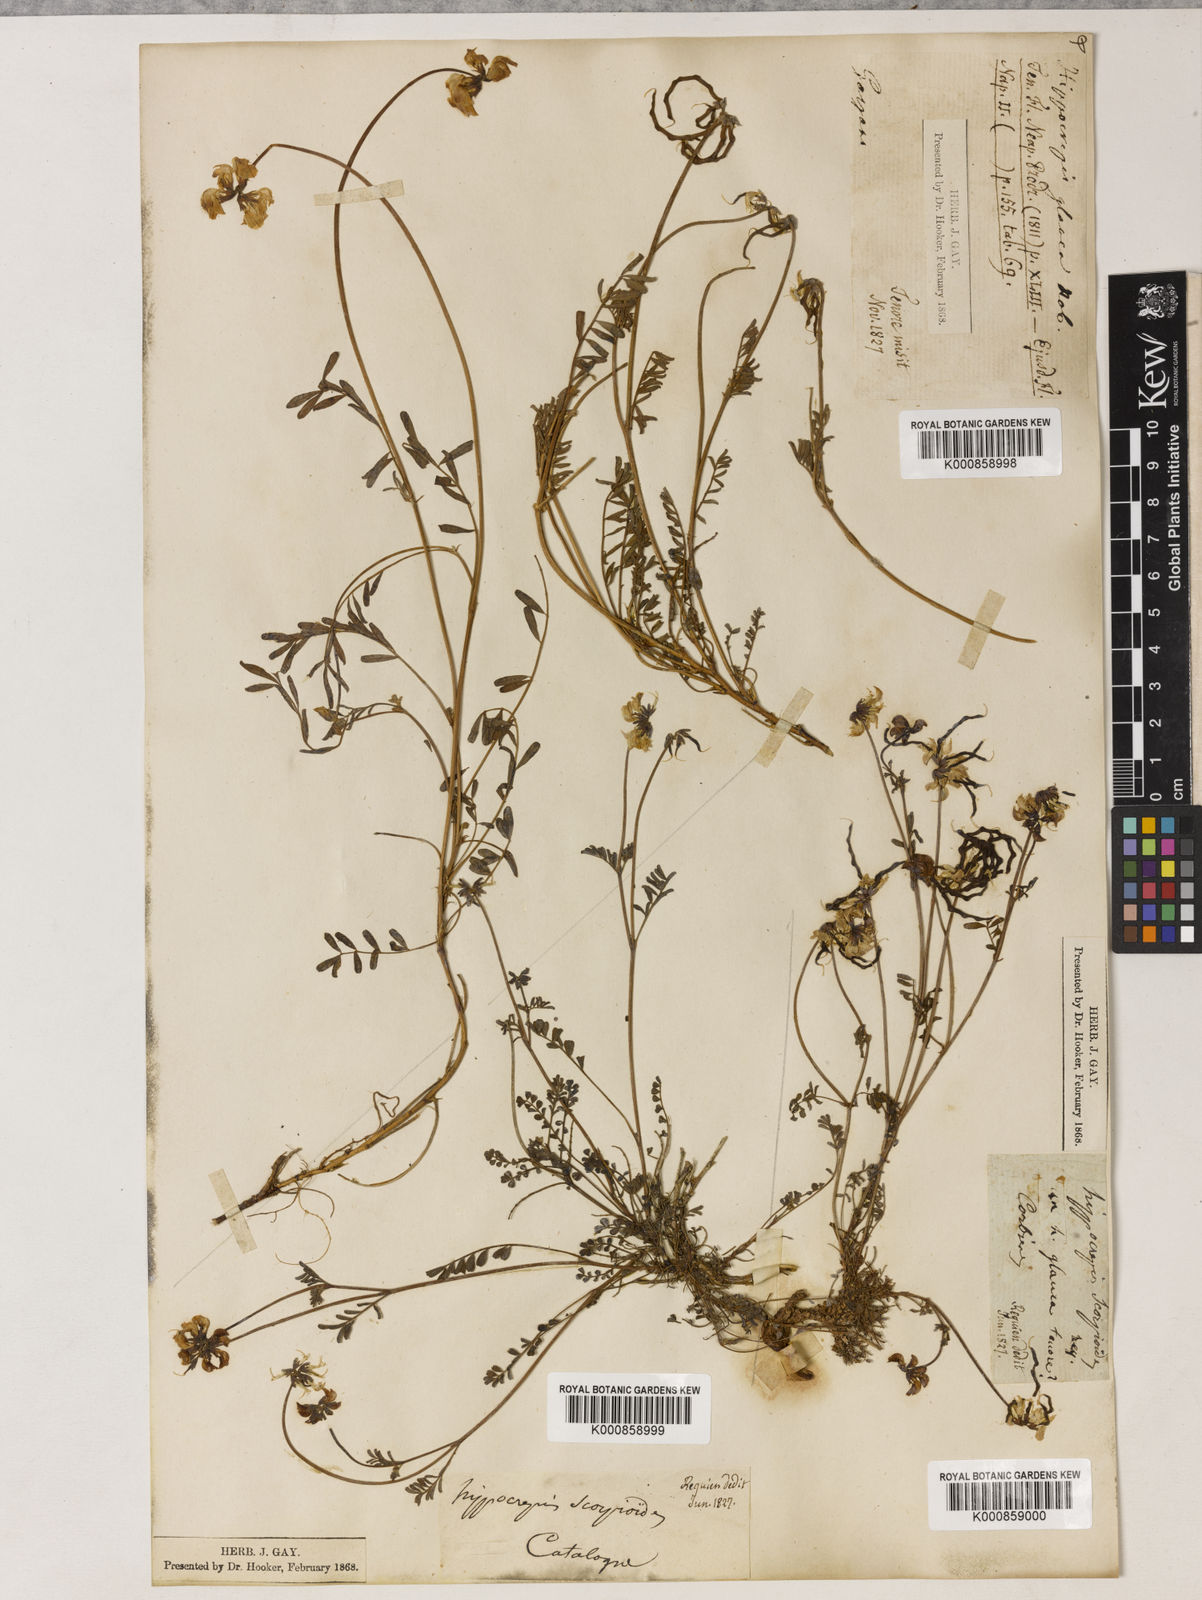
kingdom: Plantae
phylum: Tracheophyta
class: Magnoliopsida
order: Fabales
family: Fabaceae
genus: Hippocrepis
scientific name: Hippocrepis glauca
